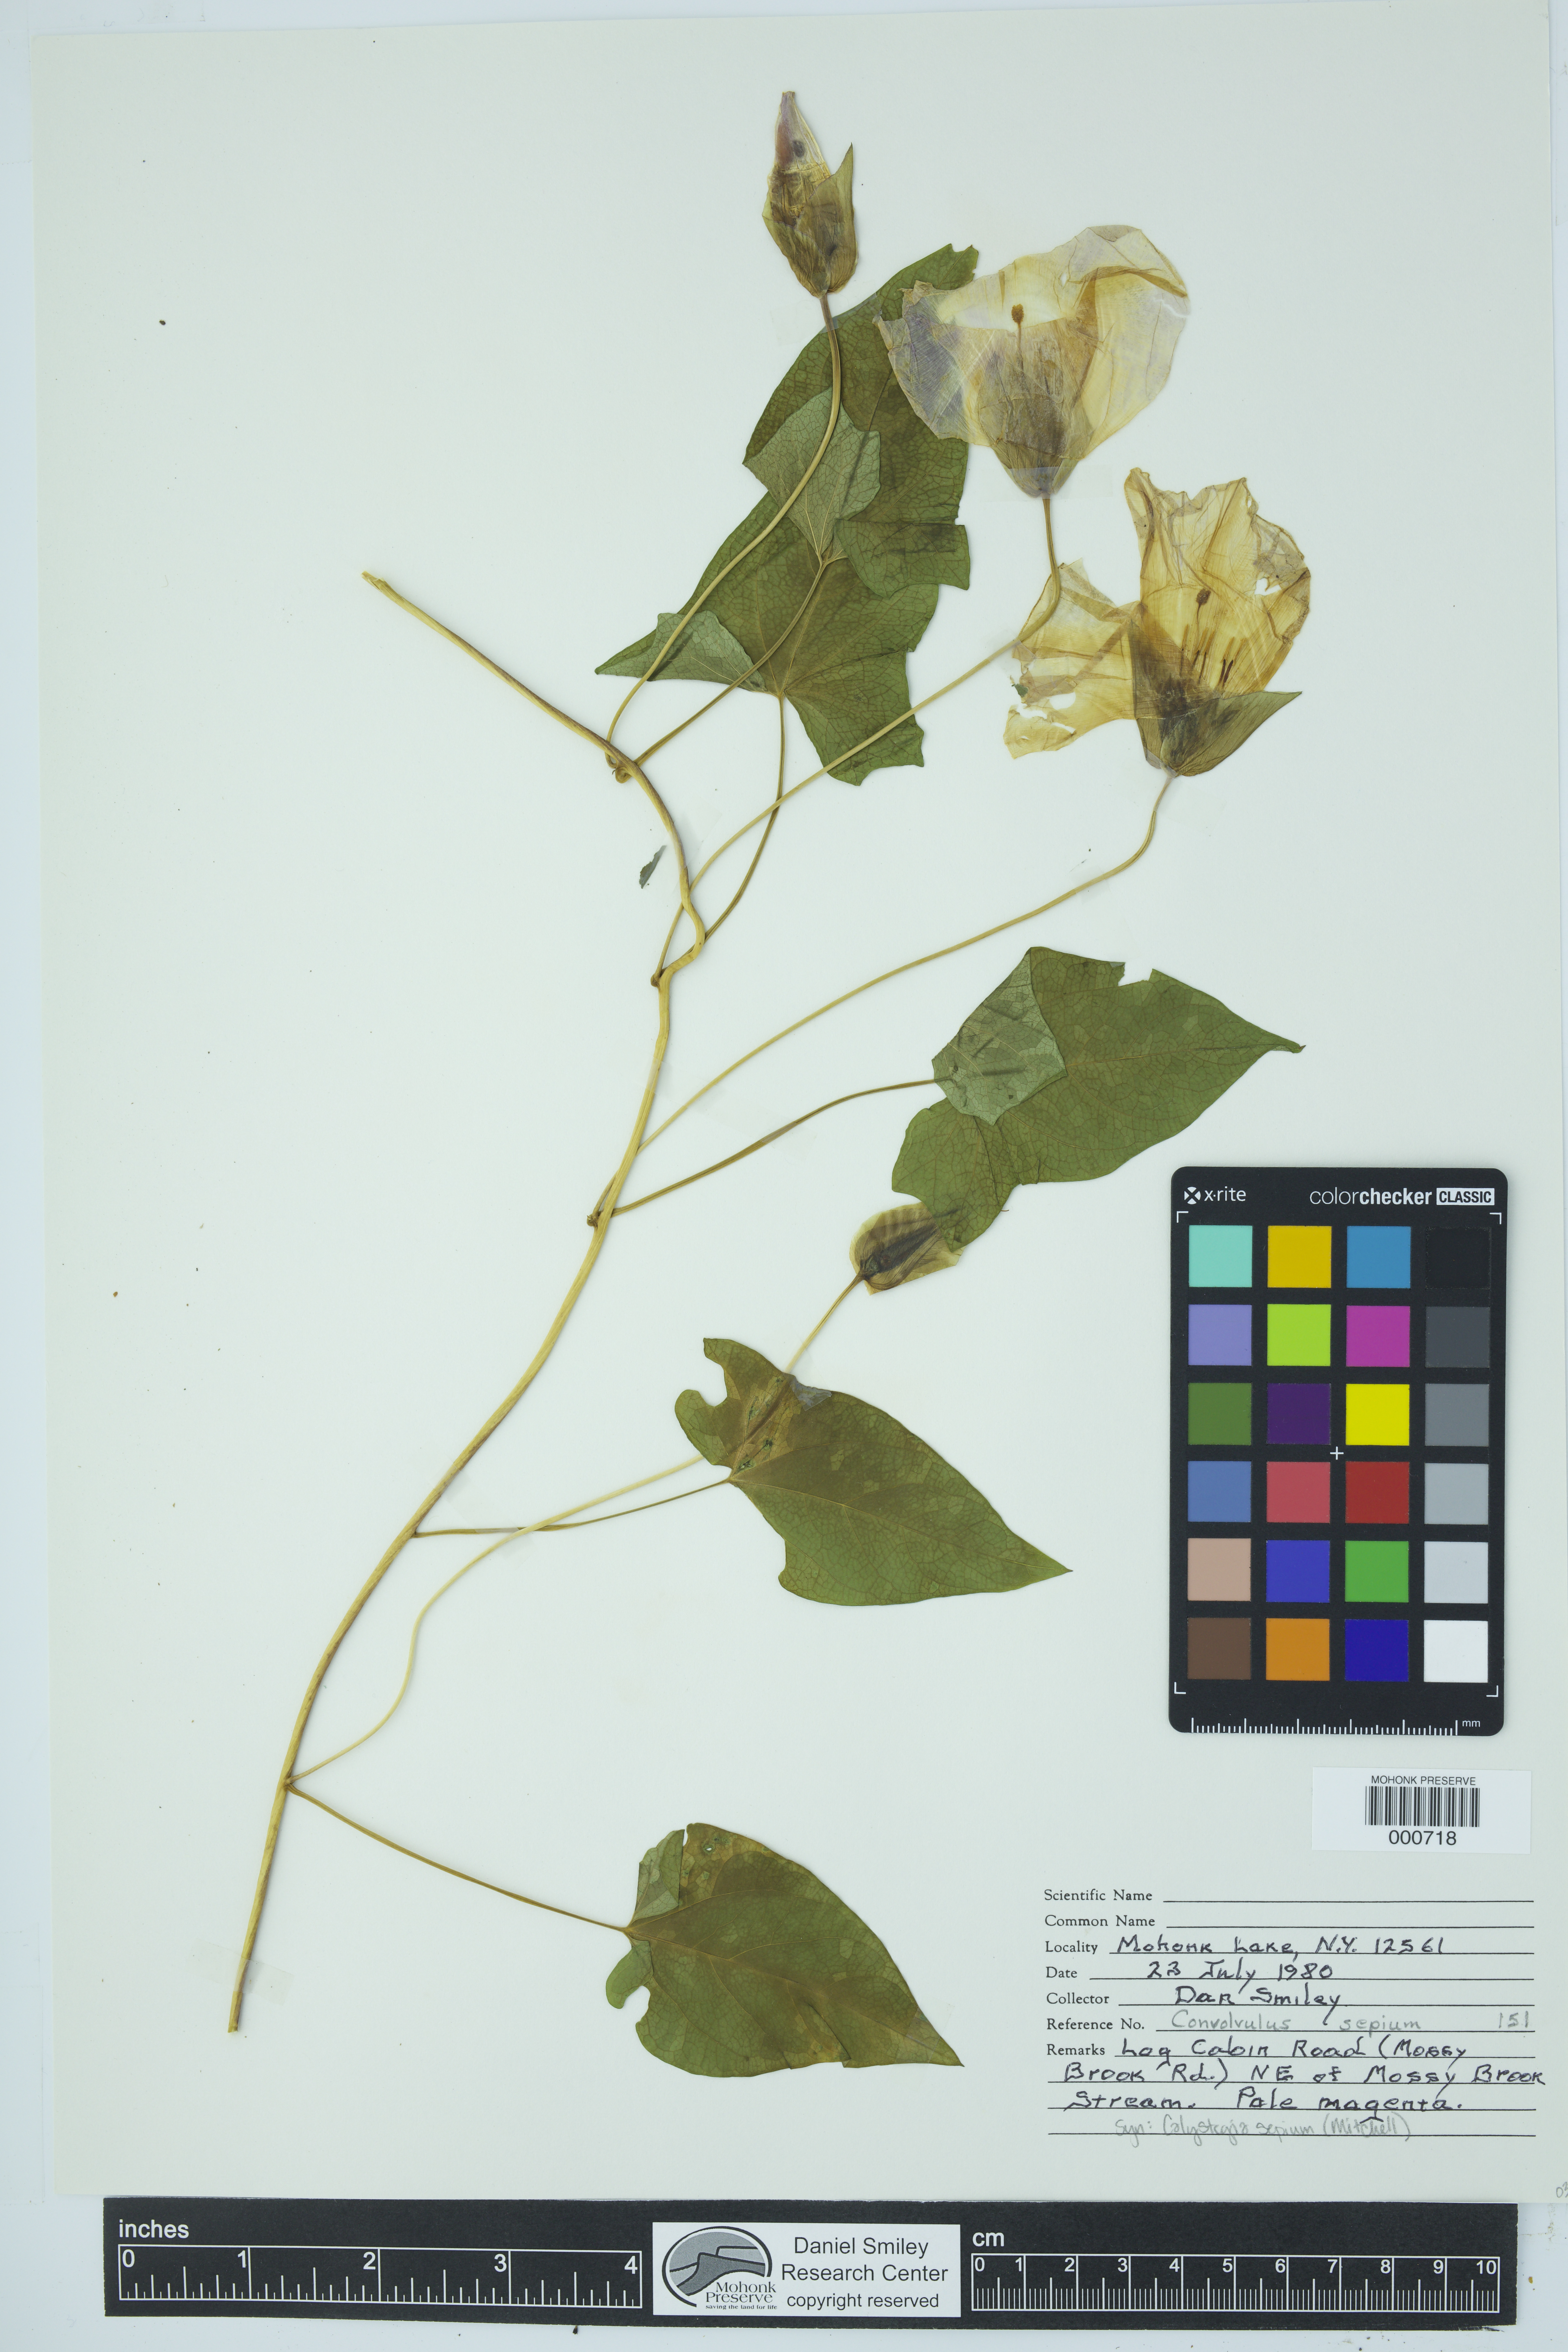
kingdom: Plantae
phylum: Tracheophyta
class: Magnoliopsida
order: Solanales
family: Convolvulaceae
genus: Calystegia
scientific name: Calystegia sepium
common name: Hedge bindweed
